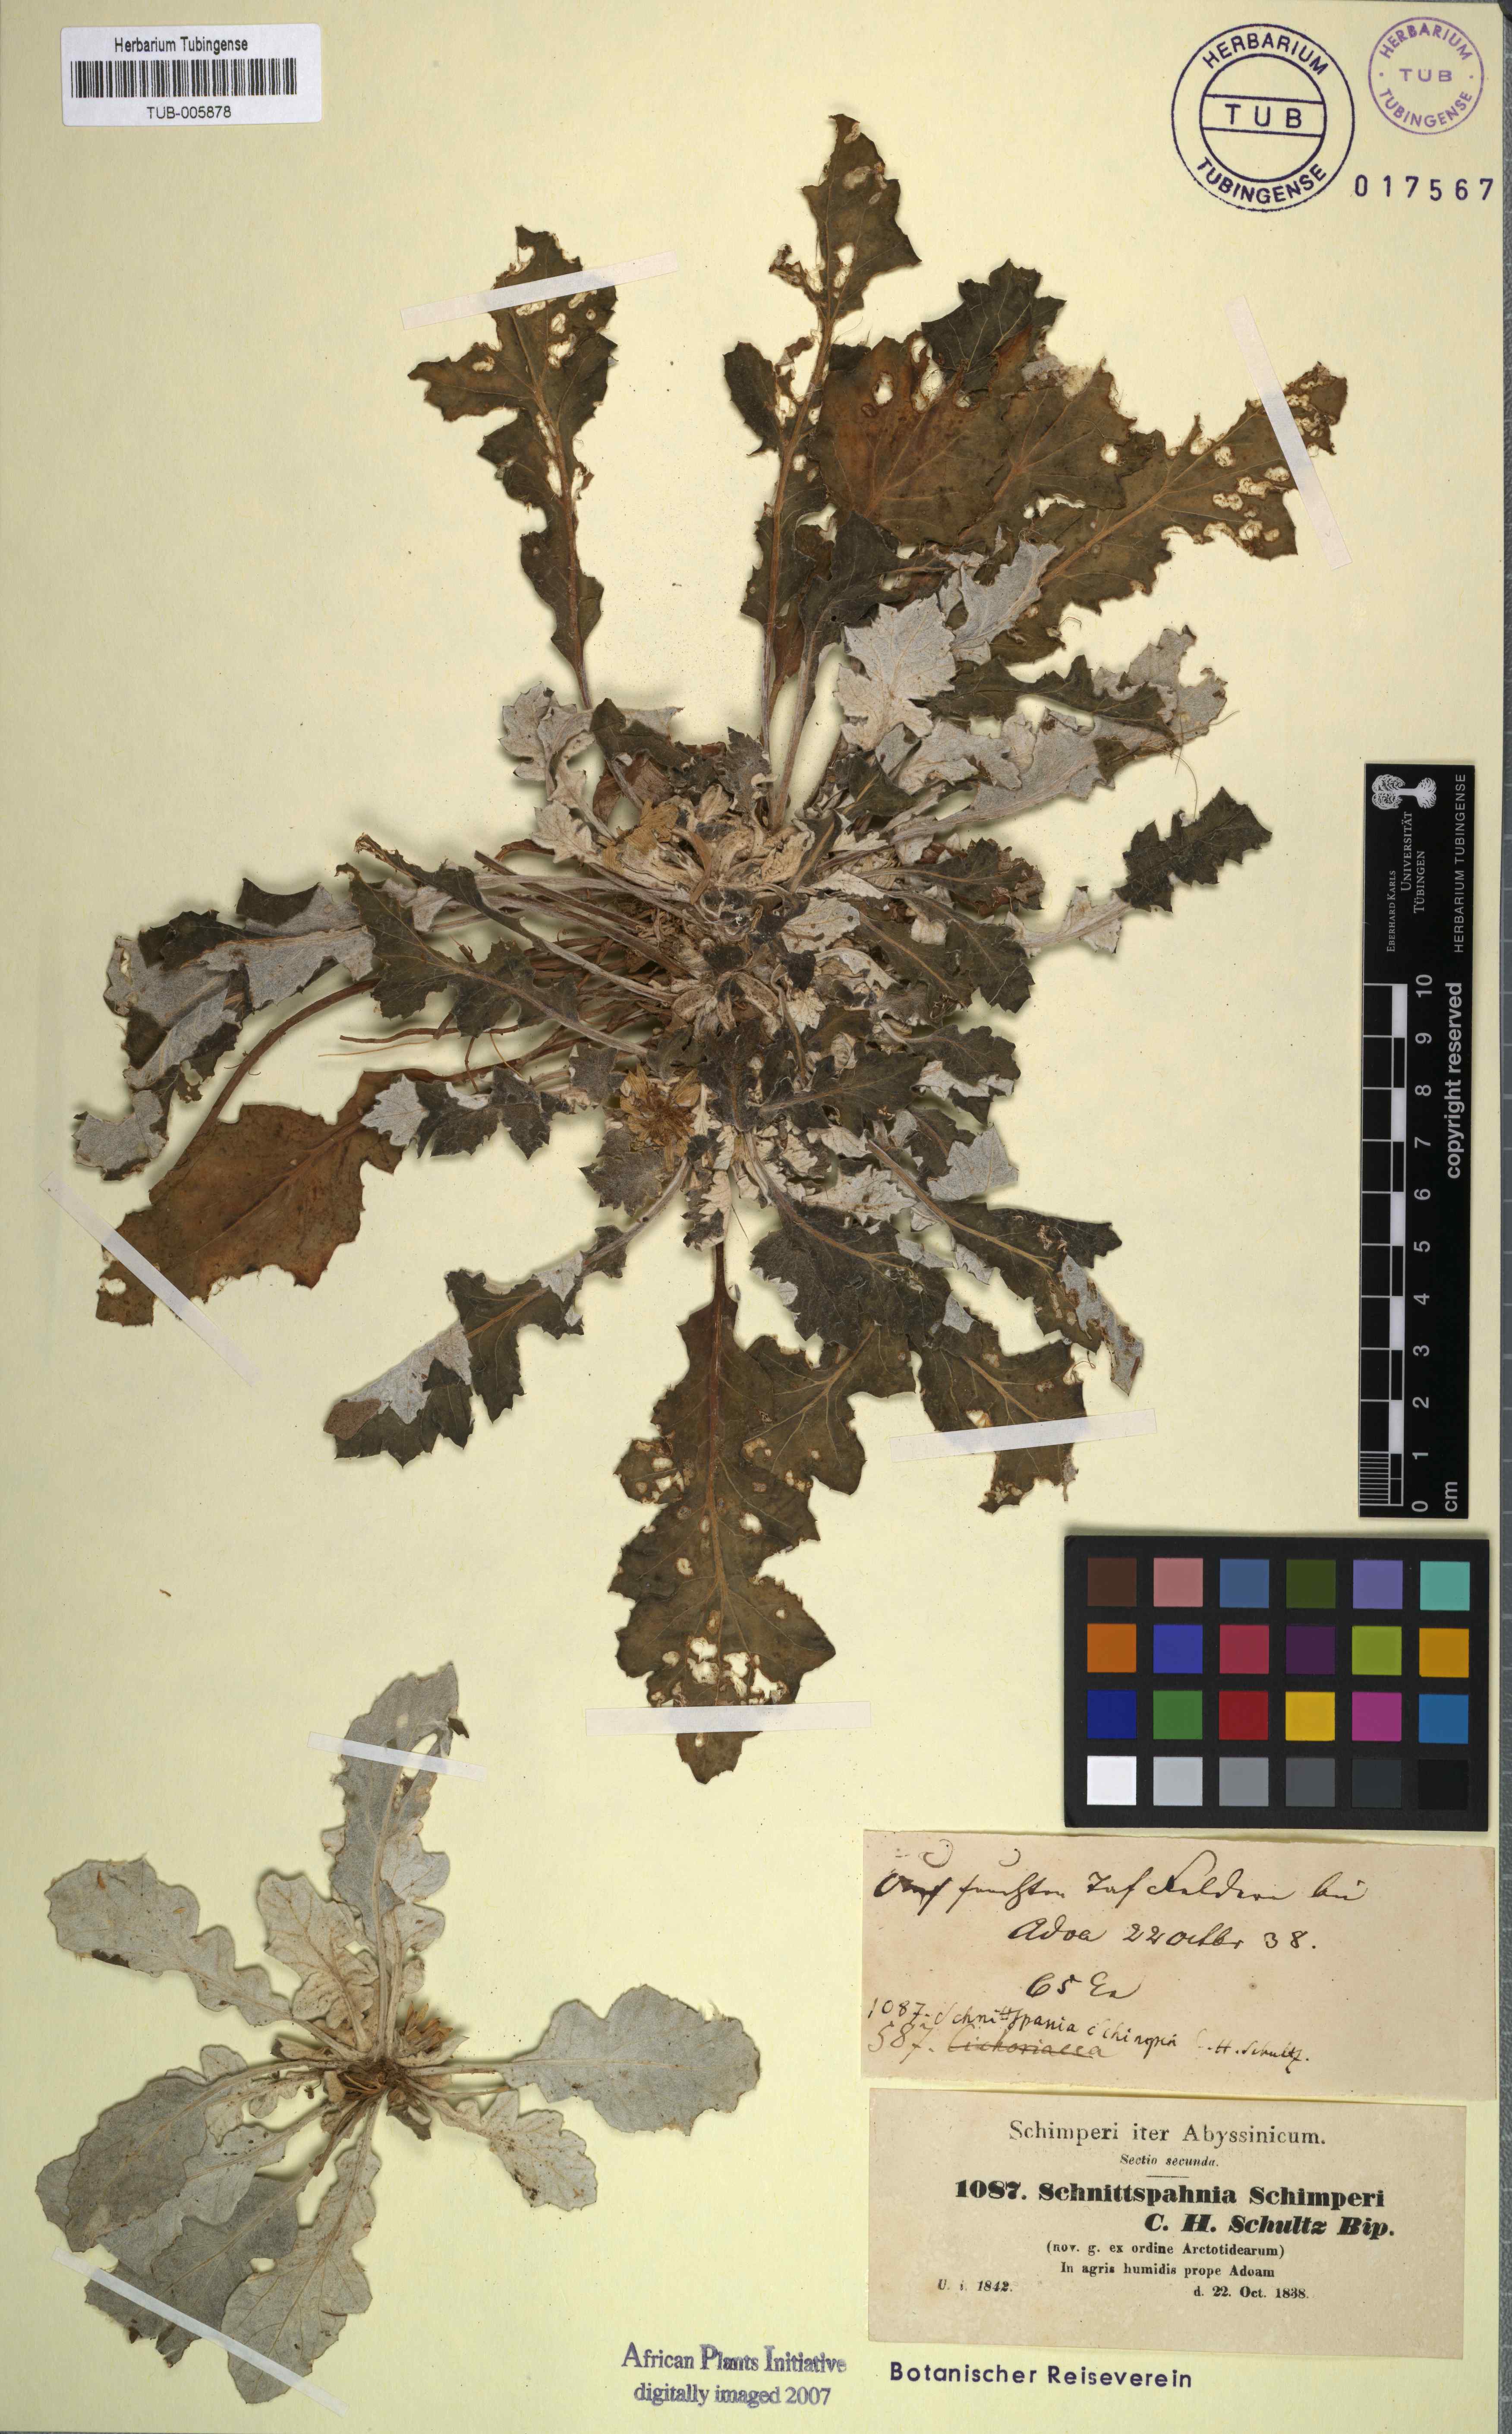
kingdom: Plantae
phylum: Tracheophyta
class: Magnoliopsida
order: Asterales
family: Asteraceae
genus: Haplocarpha
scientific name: Haplocarpha schimperi
